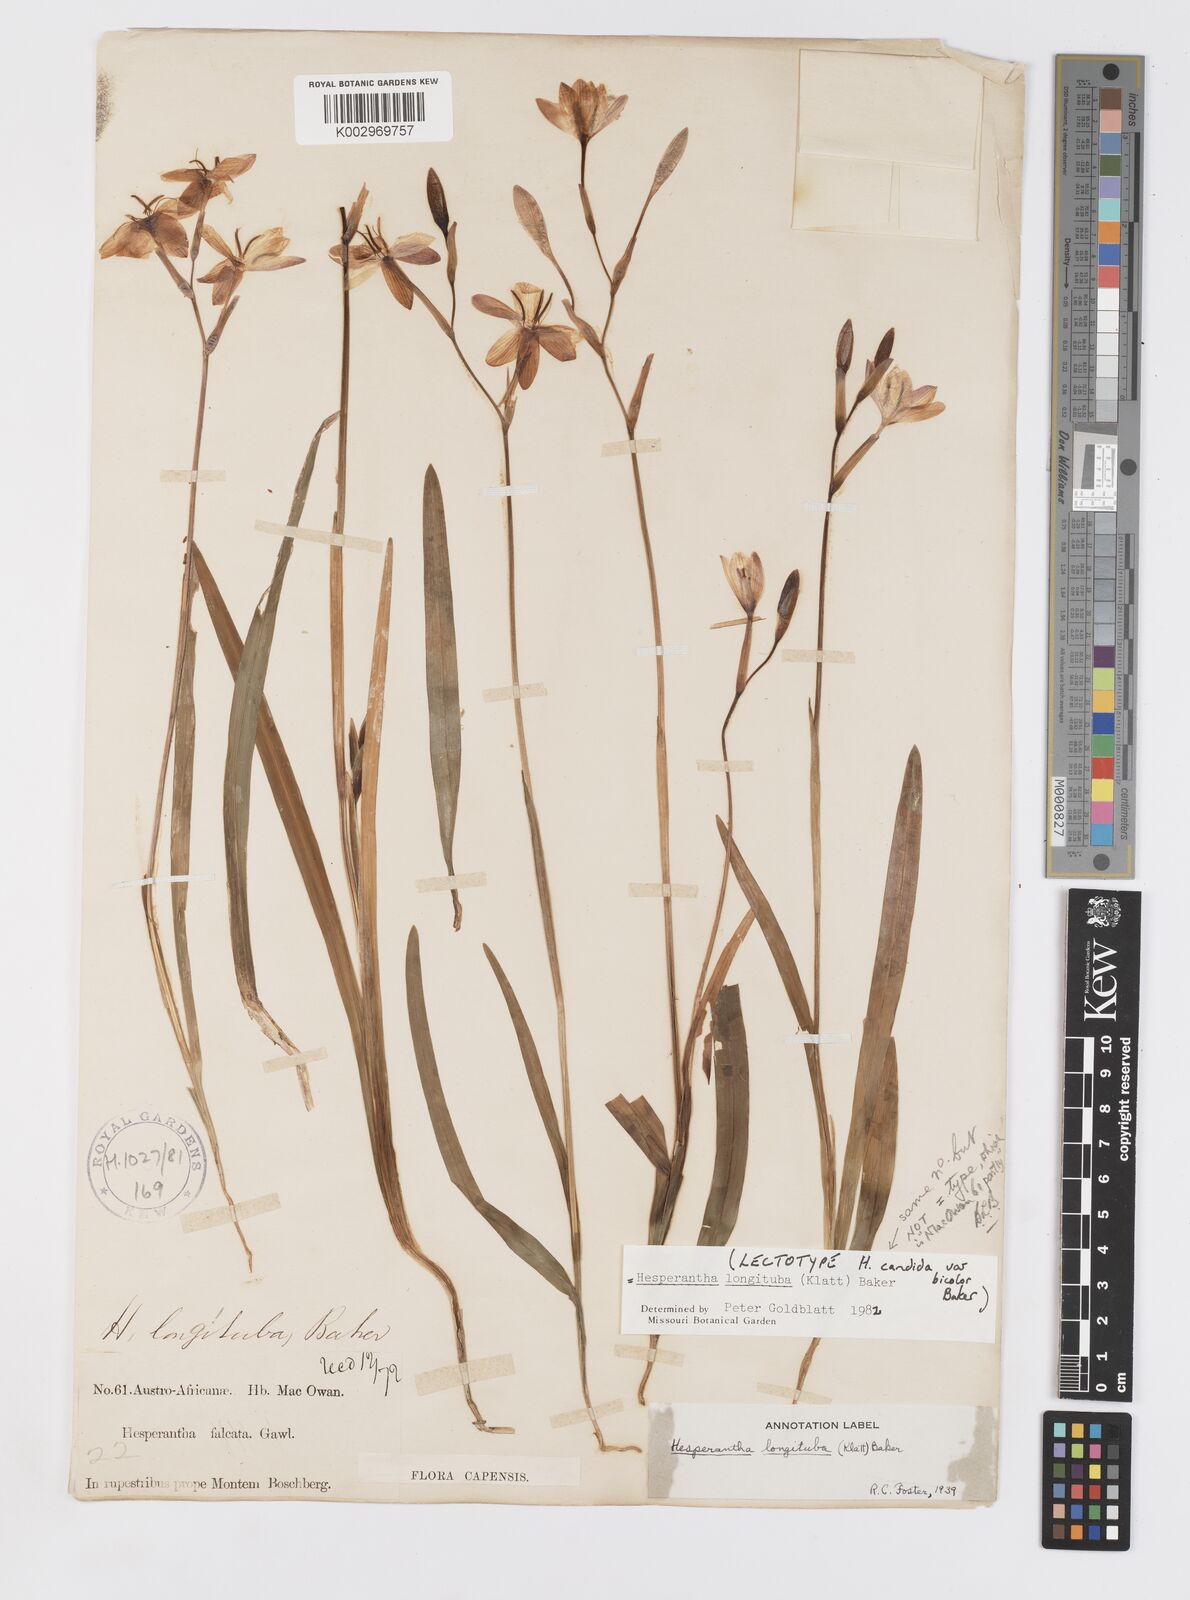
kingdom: Plantae
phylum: Tracheophyta
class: Liliopsida
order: Asparagales
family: Iridaceae
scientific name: Iridaceae
